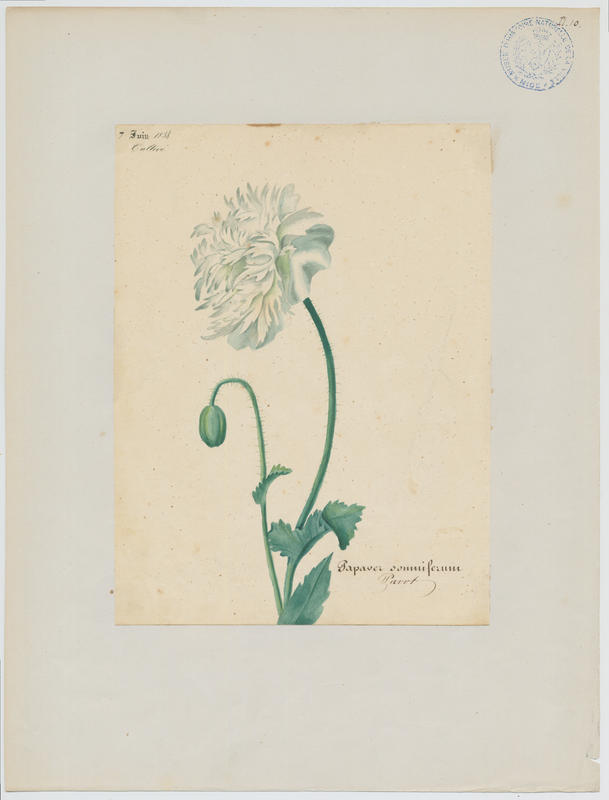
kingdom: Plantae
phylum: Tracheophyta
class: Magnoliopsida
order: Ranunculales
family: Papaveraceae
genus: Papaver
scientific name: Papaver somniferum
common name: Opium poppy
